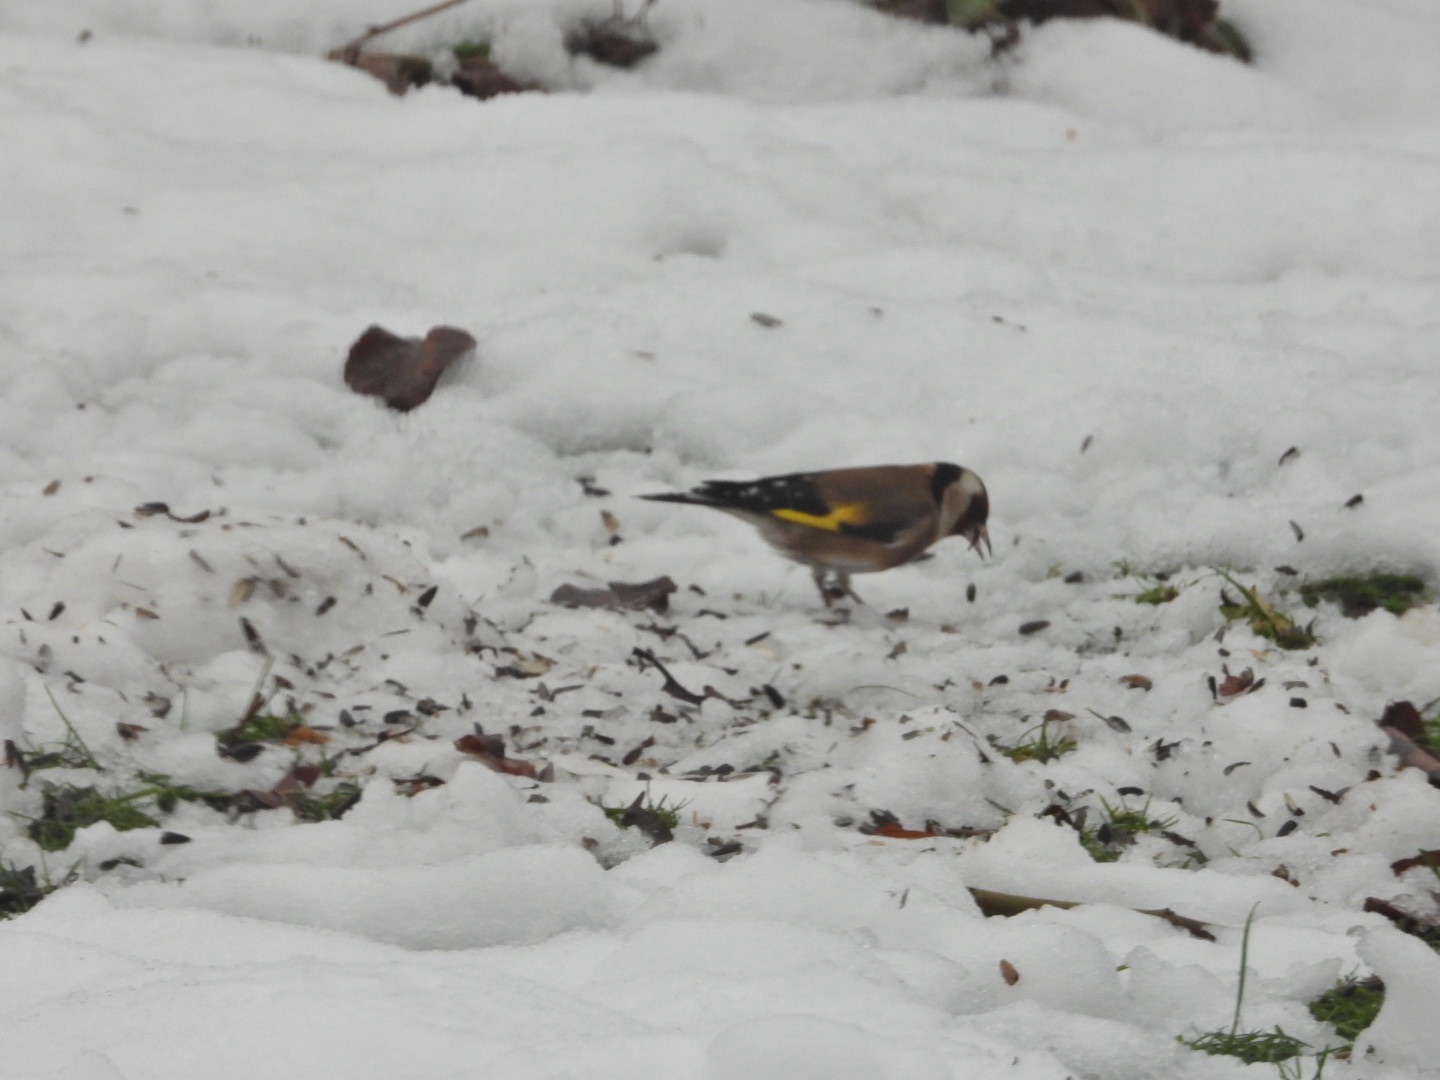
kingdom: Animalia
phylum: Chordata
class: Aves
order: Passeriformes
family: Fringillidae
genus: Carduelis
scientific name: Carduelis carduelis
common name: Stillits
